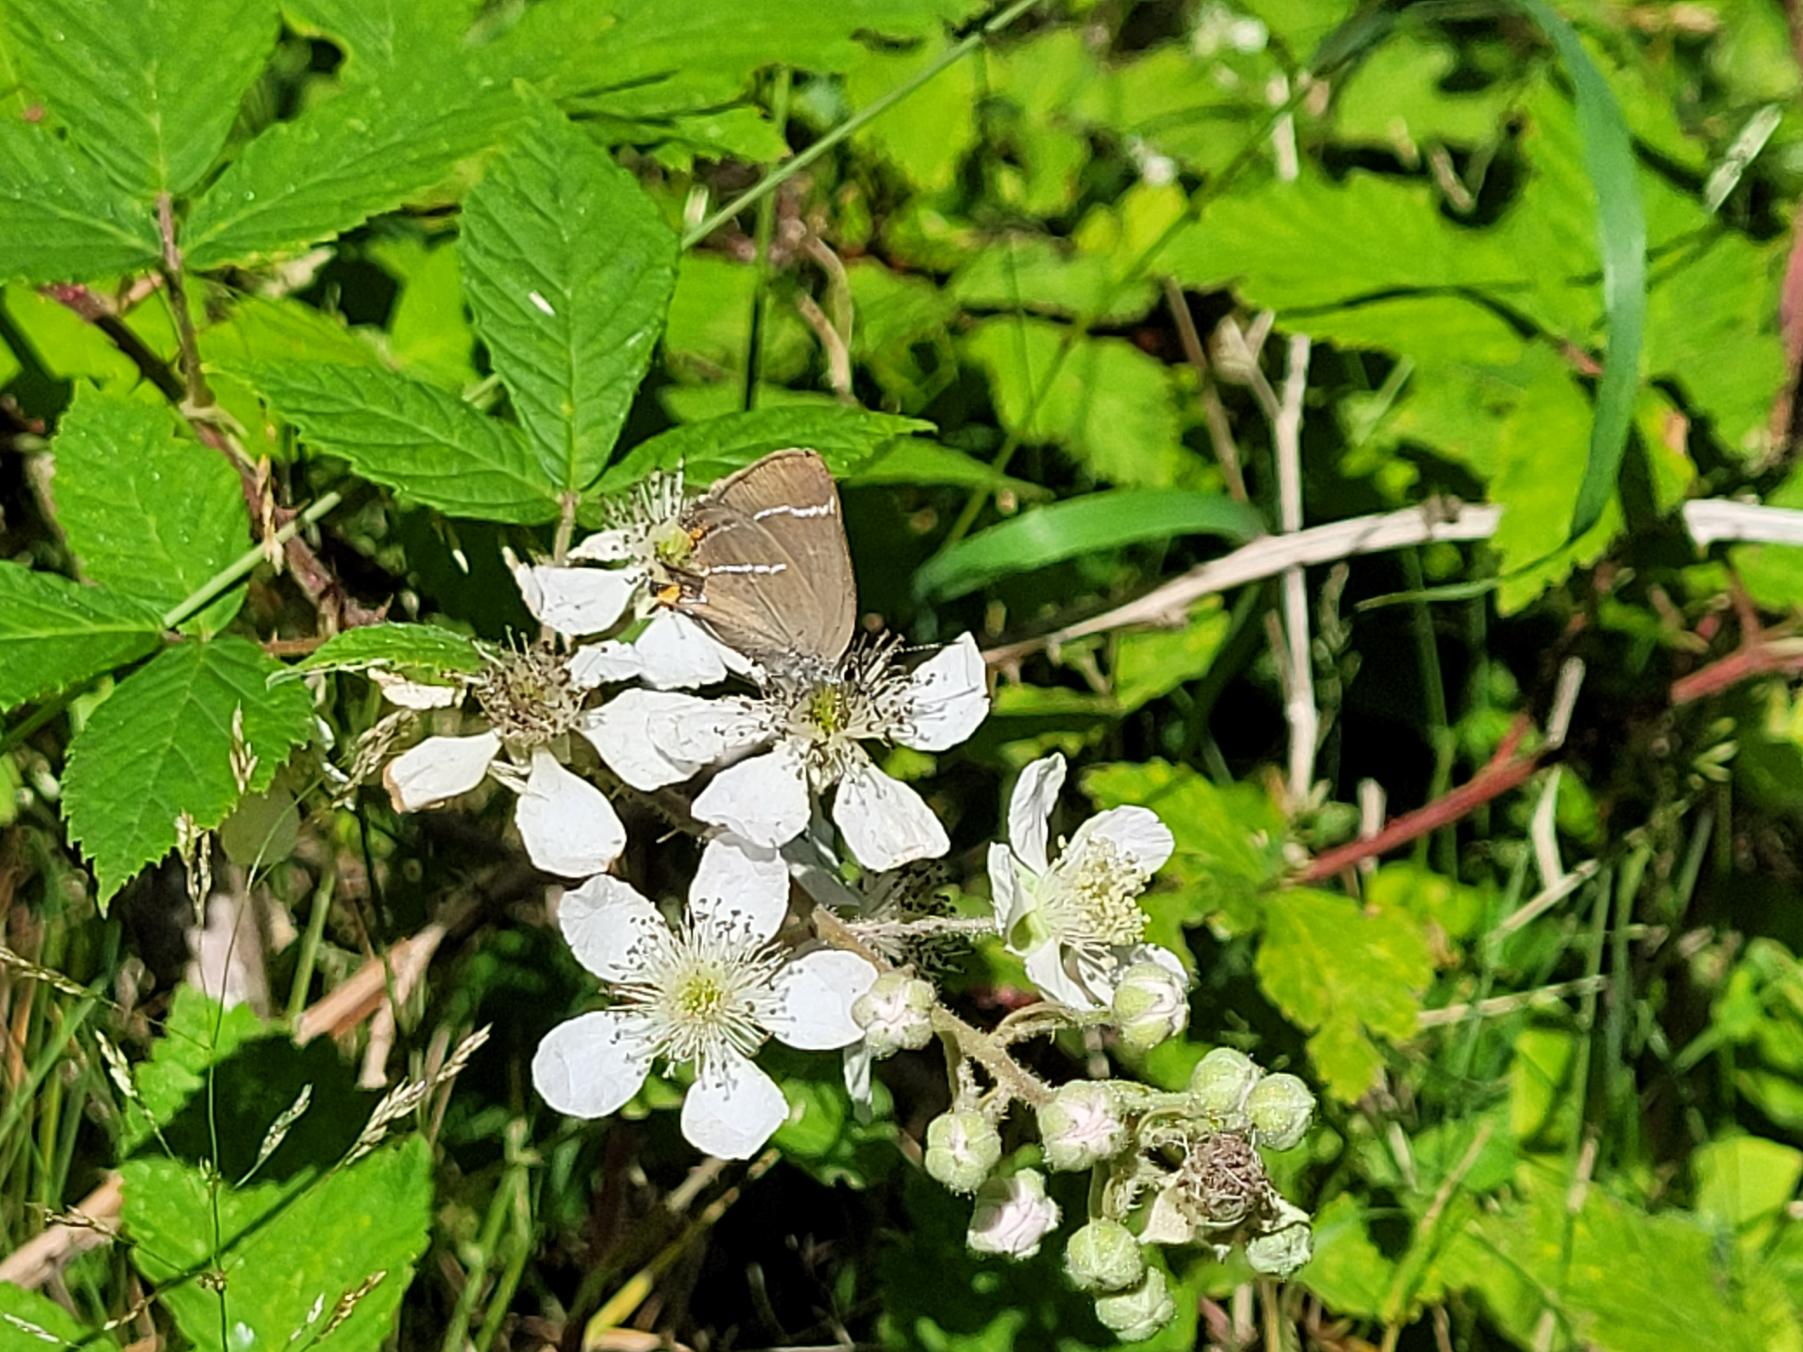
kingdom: Animalia
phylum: Arthropoda
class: Insecta
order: Lepidoptera
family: Lycaenidae
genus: Satyrium
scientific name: Satyrium w-album
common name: Det hvide W
